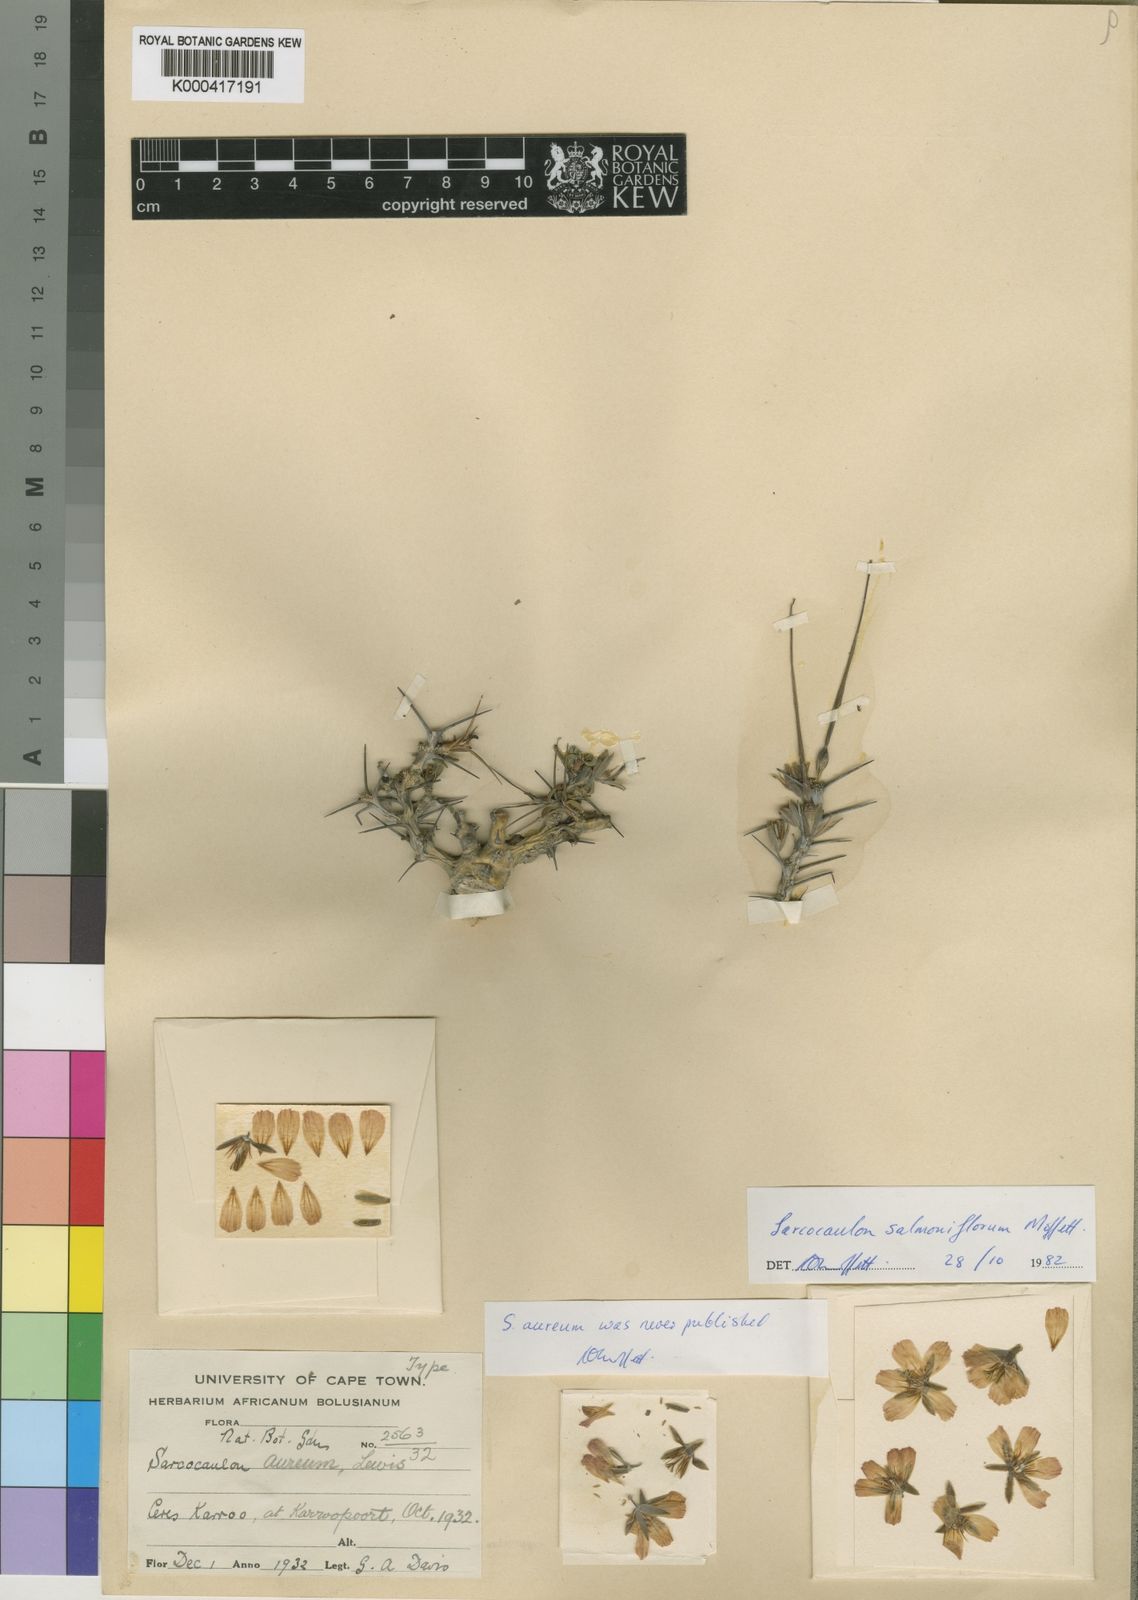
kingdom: Plantae
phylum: Tracheophyta
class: Magnoliopsida
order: Geraniales
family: Geraniaceae
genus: Monsonia
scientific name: Monsonia salmoniflora
